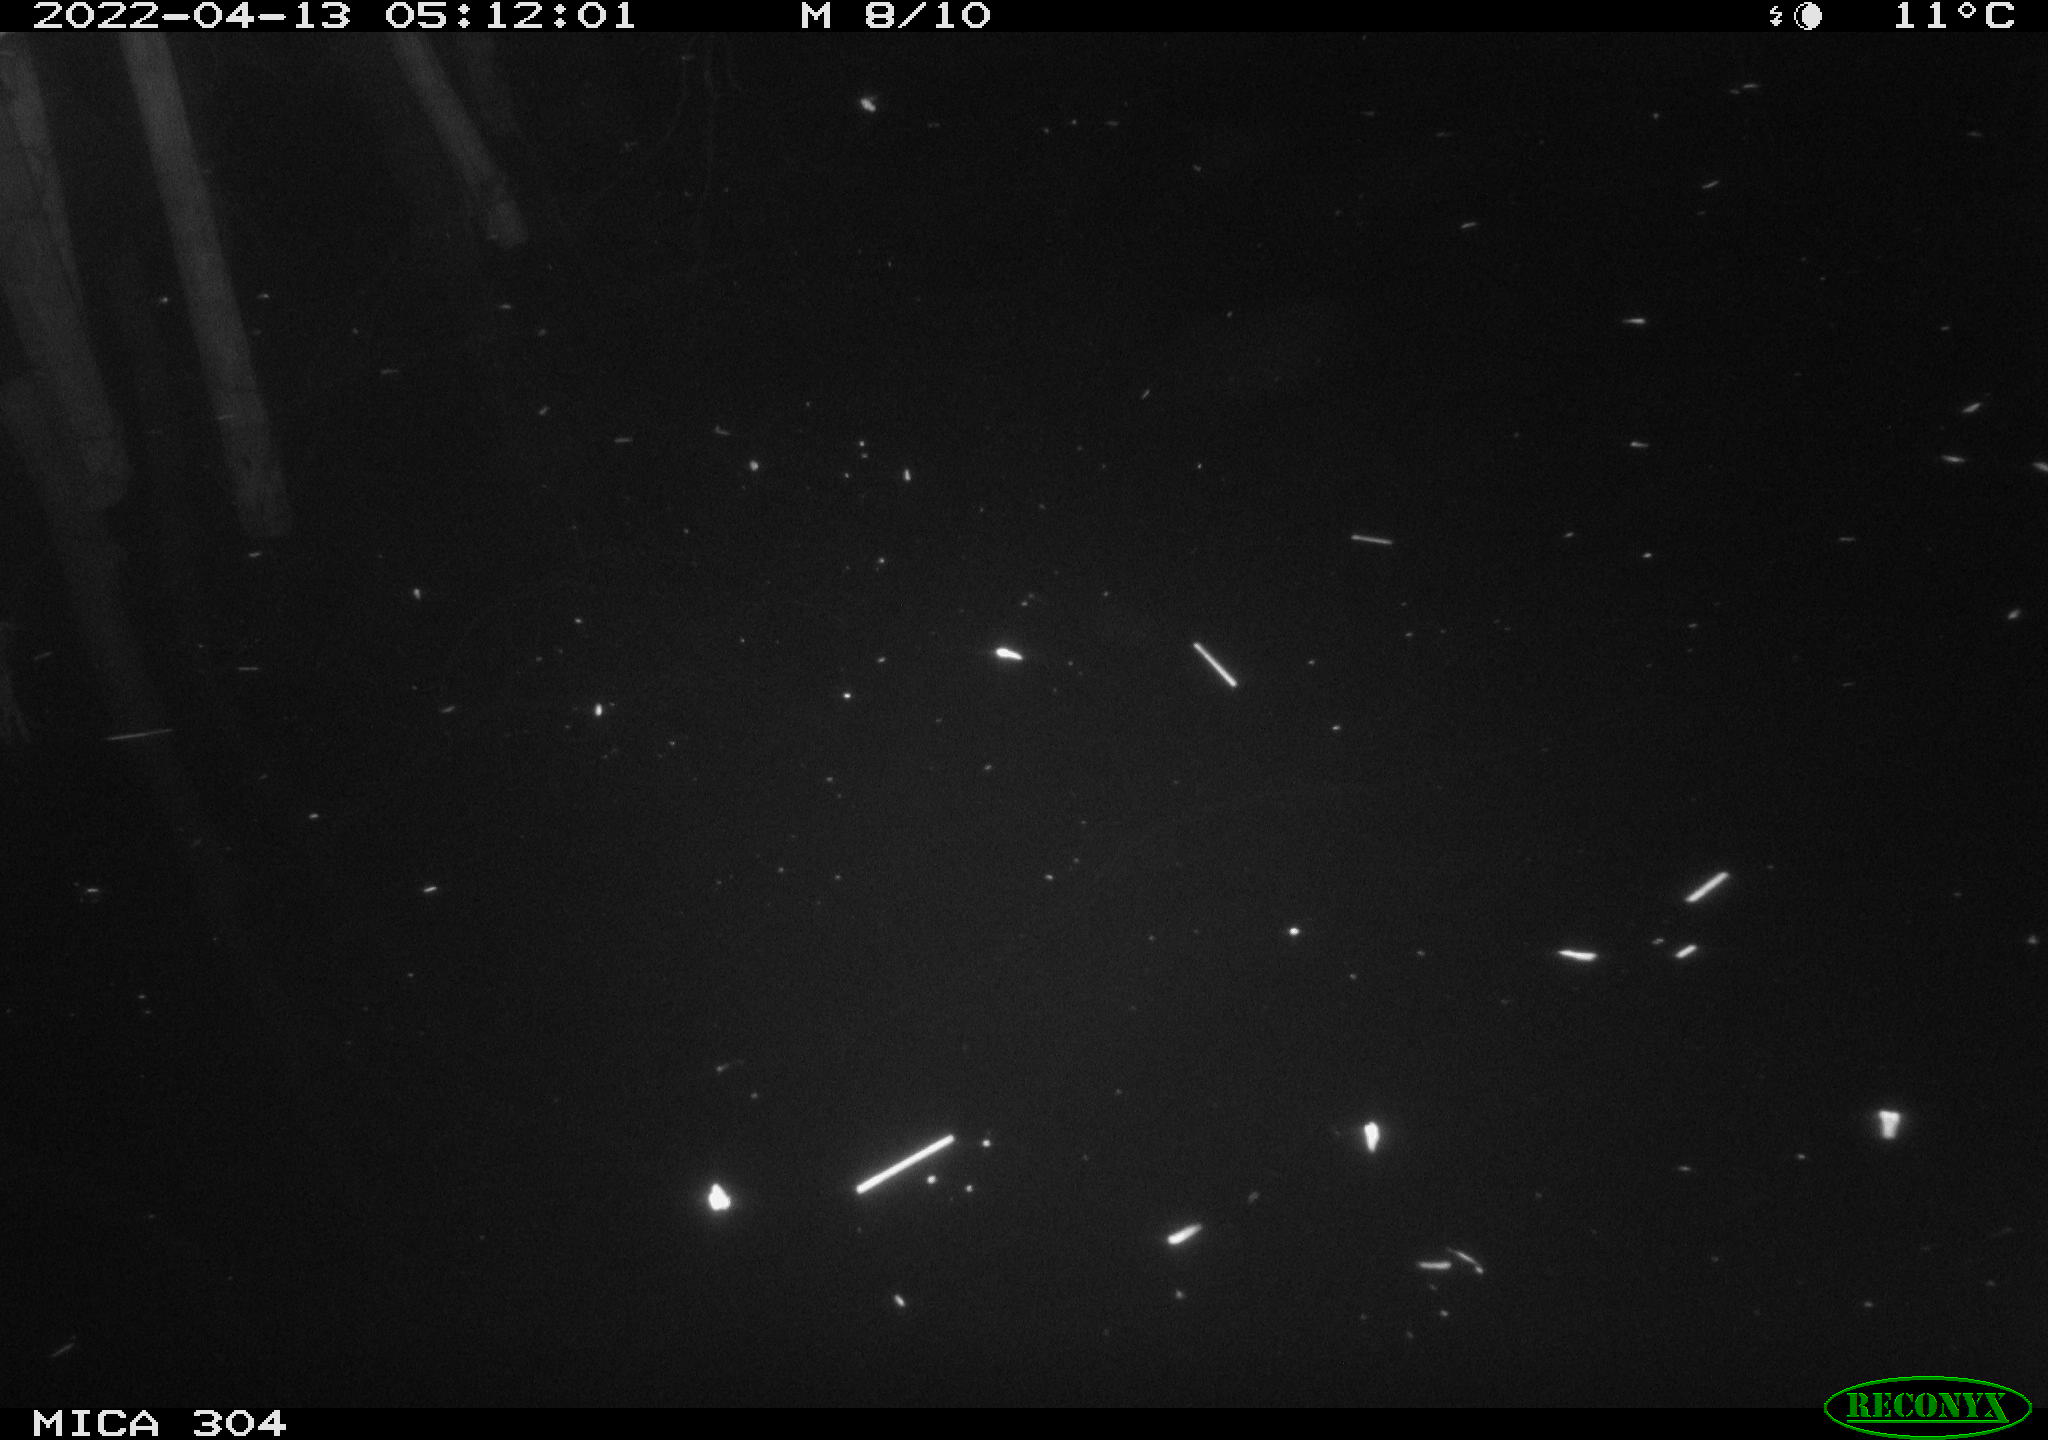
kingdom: Animalia
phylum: Chordata
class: Aves
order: Anseriformes
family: Anatidae
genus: Anas
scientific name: Anas platyrhynchos
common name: Mallard
